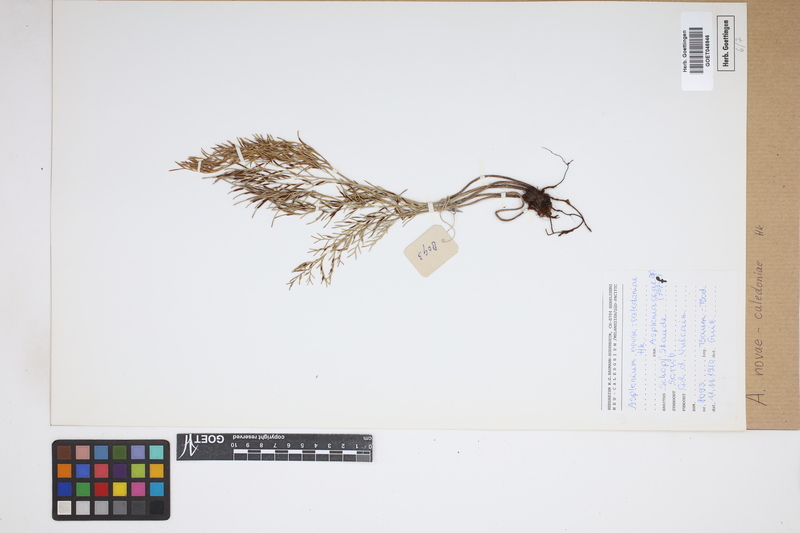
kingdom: Plantae
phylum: Tracheophyta
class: Polypodiopsida
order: Polypodiales
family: Aspleniaceae
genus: Asplenium
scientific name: Asplenium novae-caledoniae
